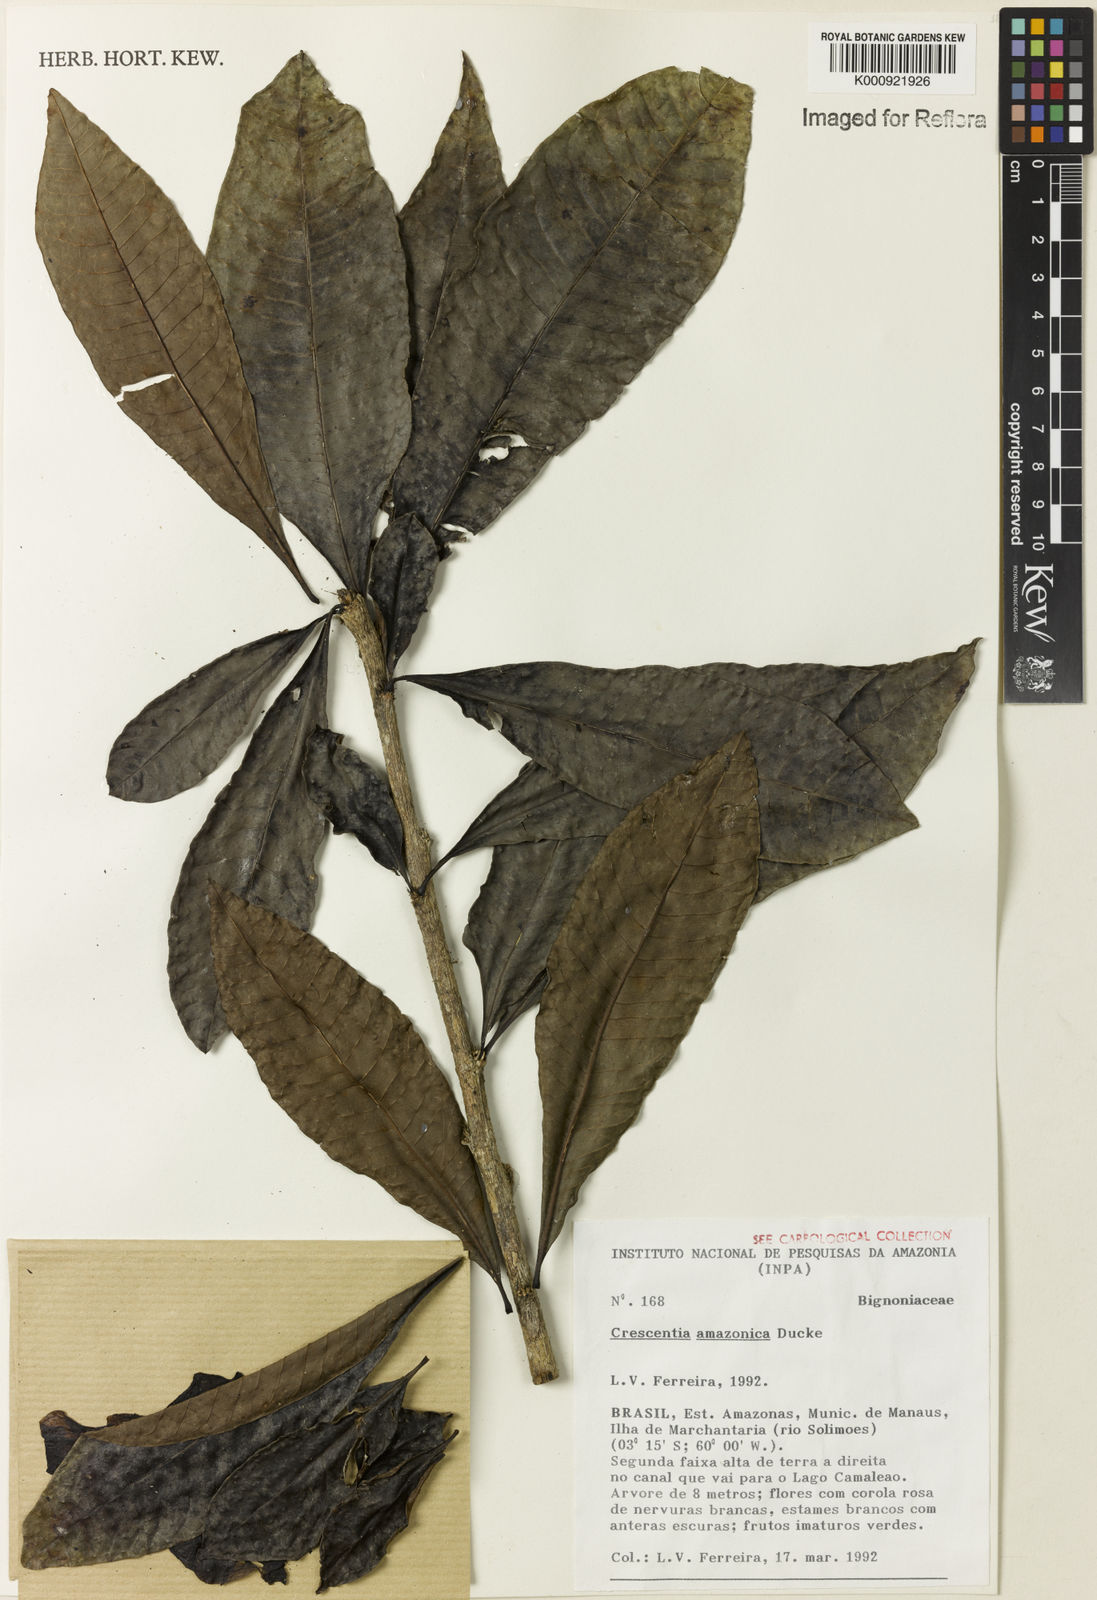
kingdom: Plantae
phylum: Tracheophyta
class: Magnoliopsida
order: Lamiales
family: Bignoniaceae
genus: Crescentia
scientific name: Crescentia amazonica
